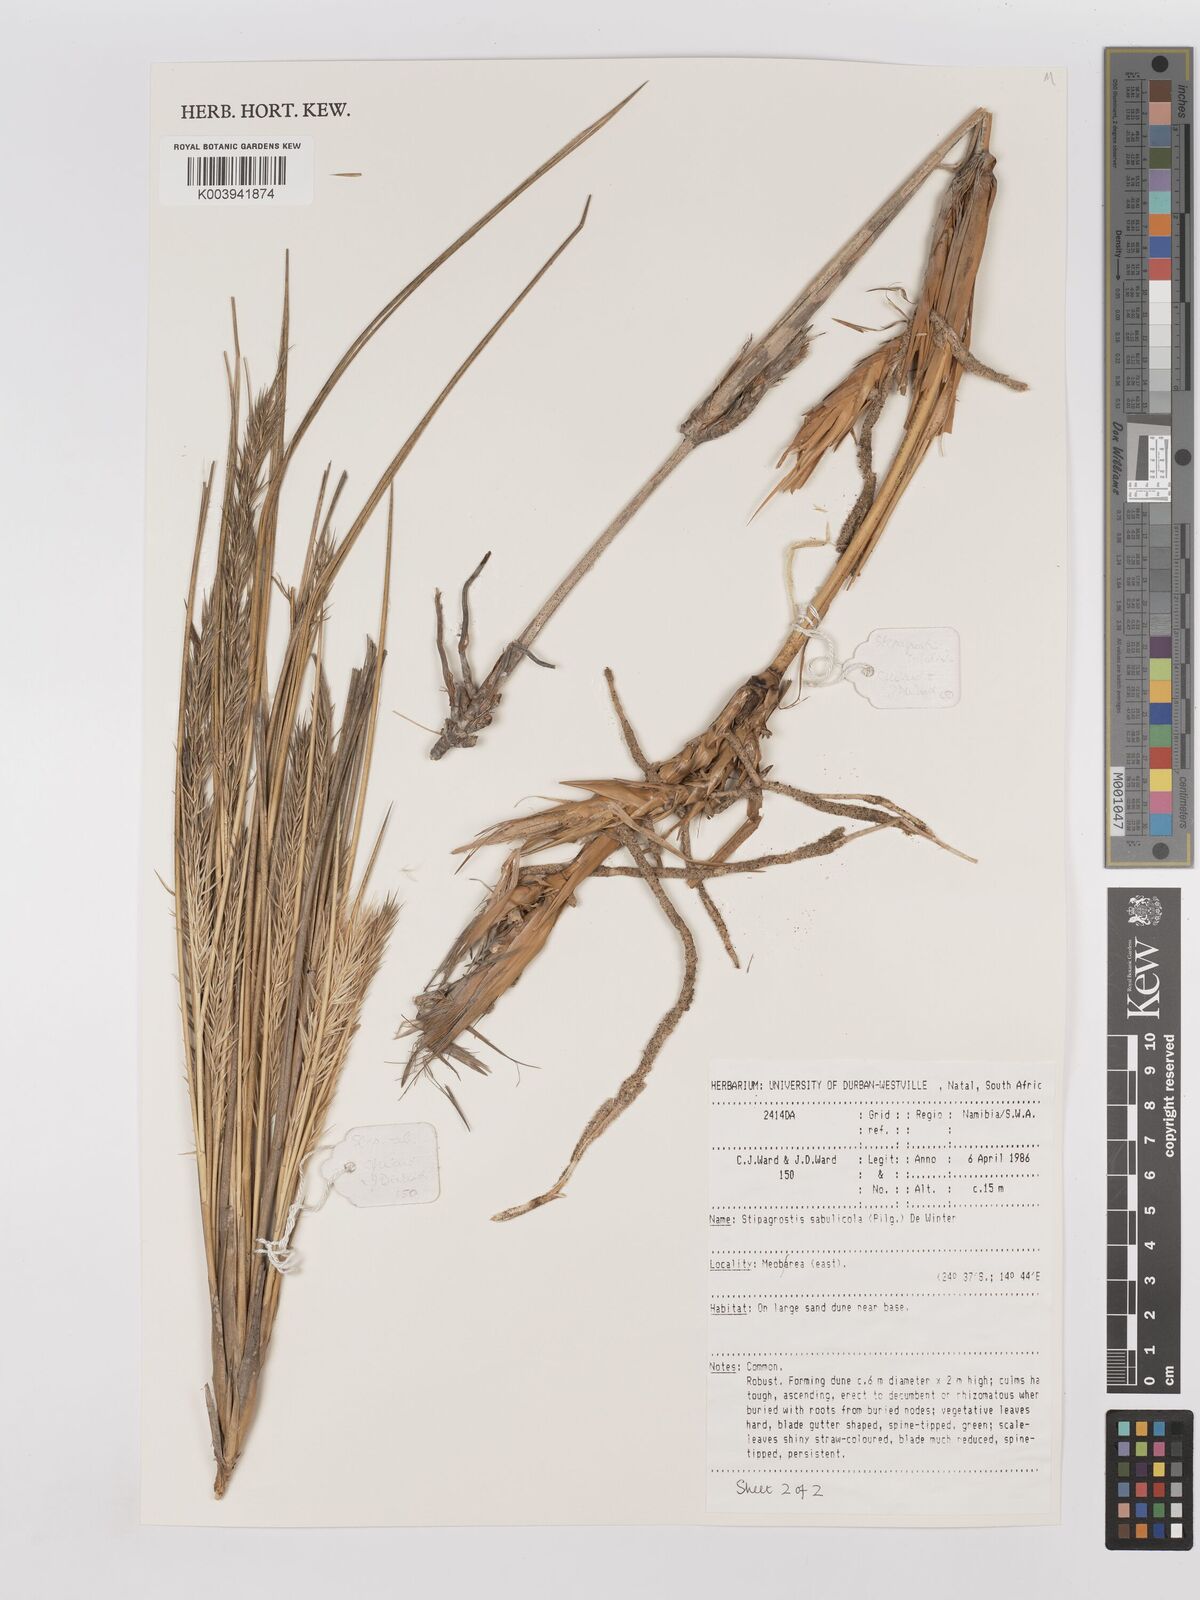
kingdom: Plantae
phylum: Tracheophyta
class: Liliopsida
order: Poales
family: Poaceae
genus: Stipagrostis
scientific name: Stipagrostis sabulicola
